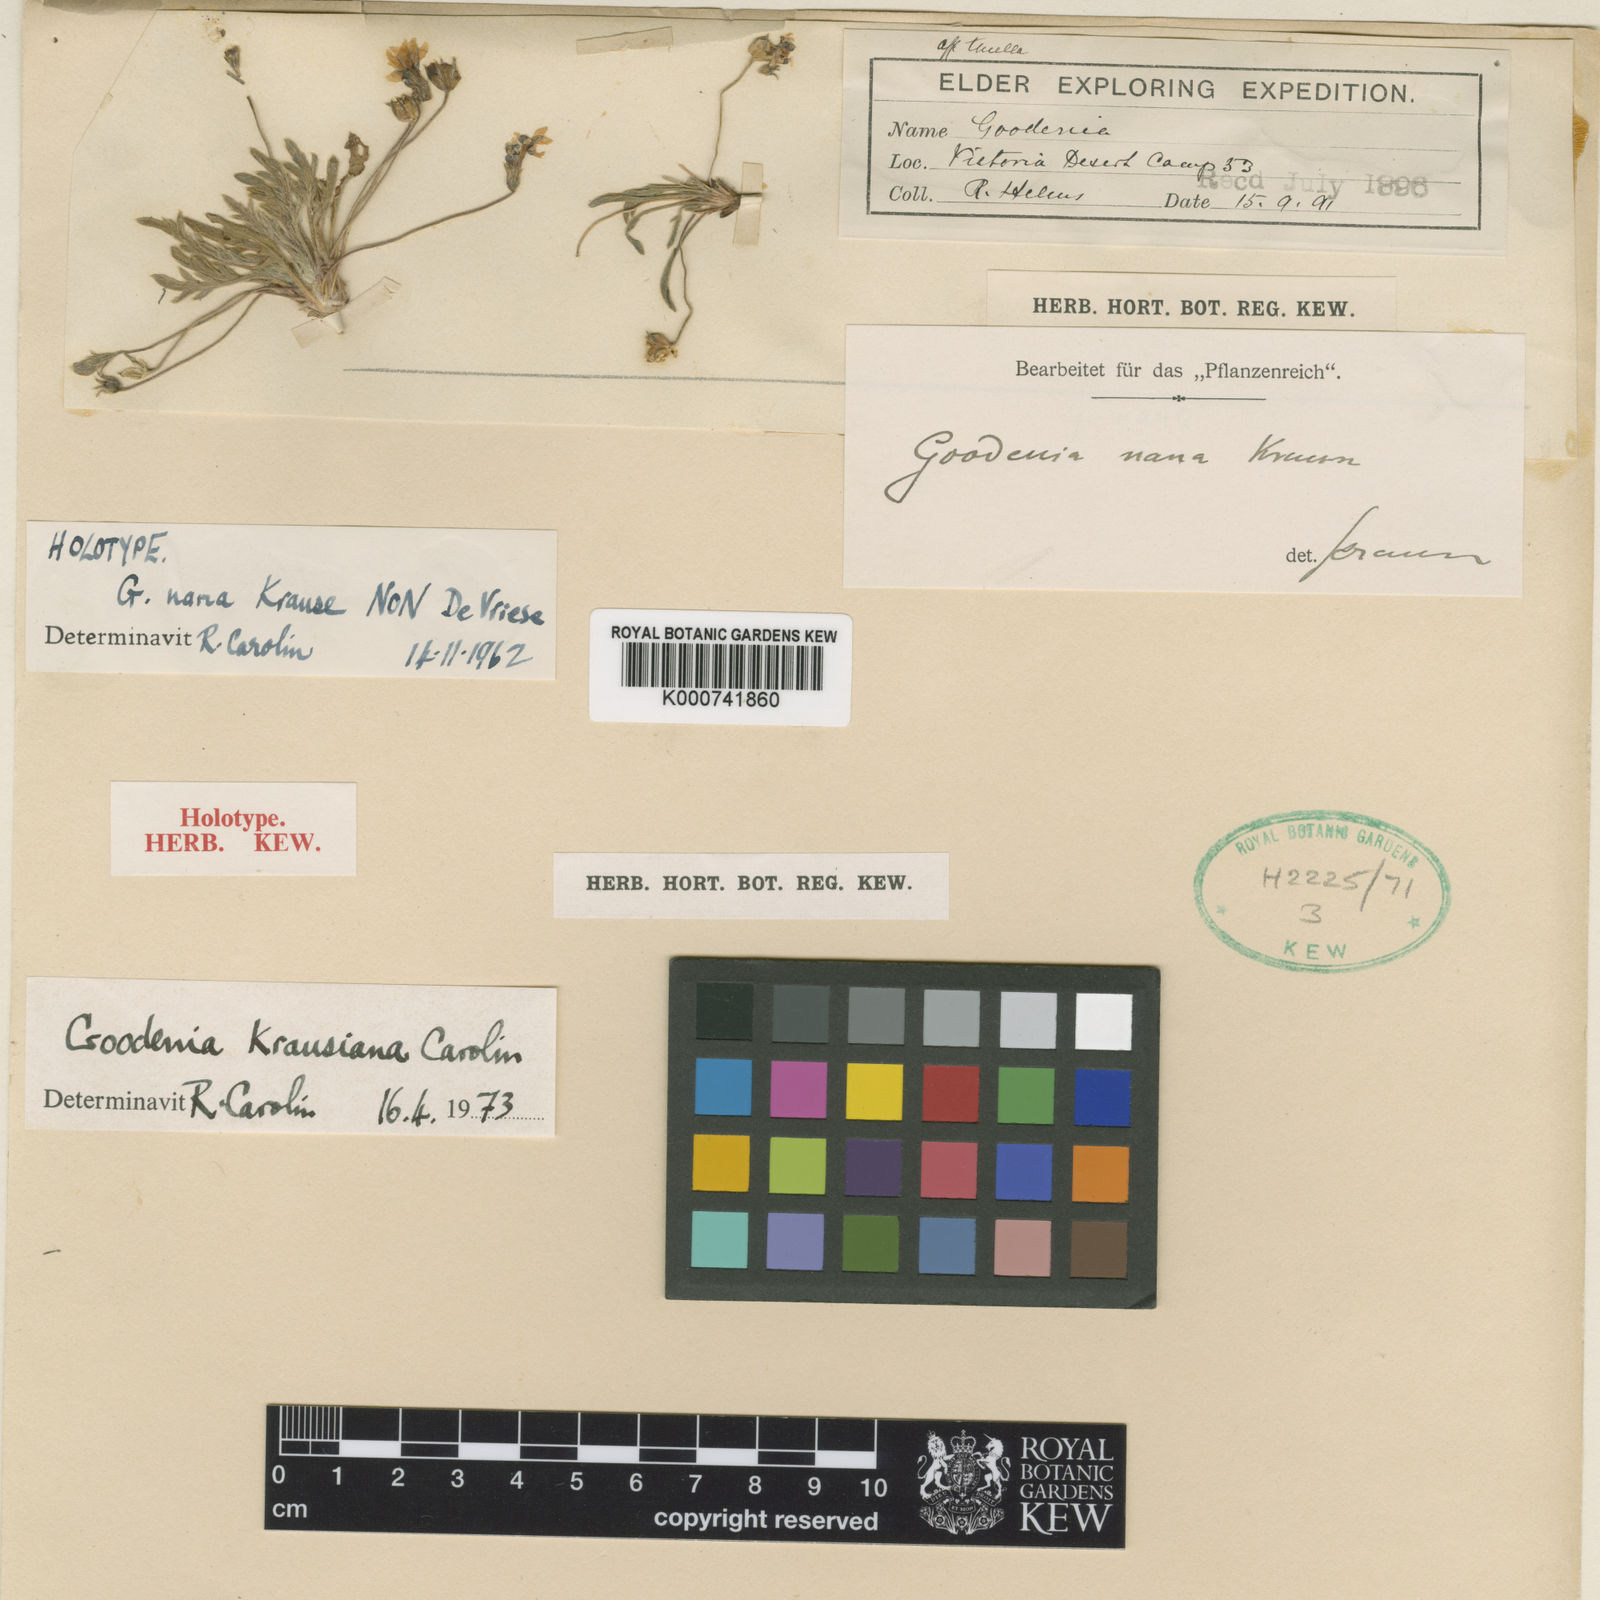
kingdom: Plantae
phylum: Tracheophyta
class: Magnoliopsida
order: Asterales
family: Goodeniaceae
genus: Goodenia
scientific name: Goodenia
